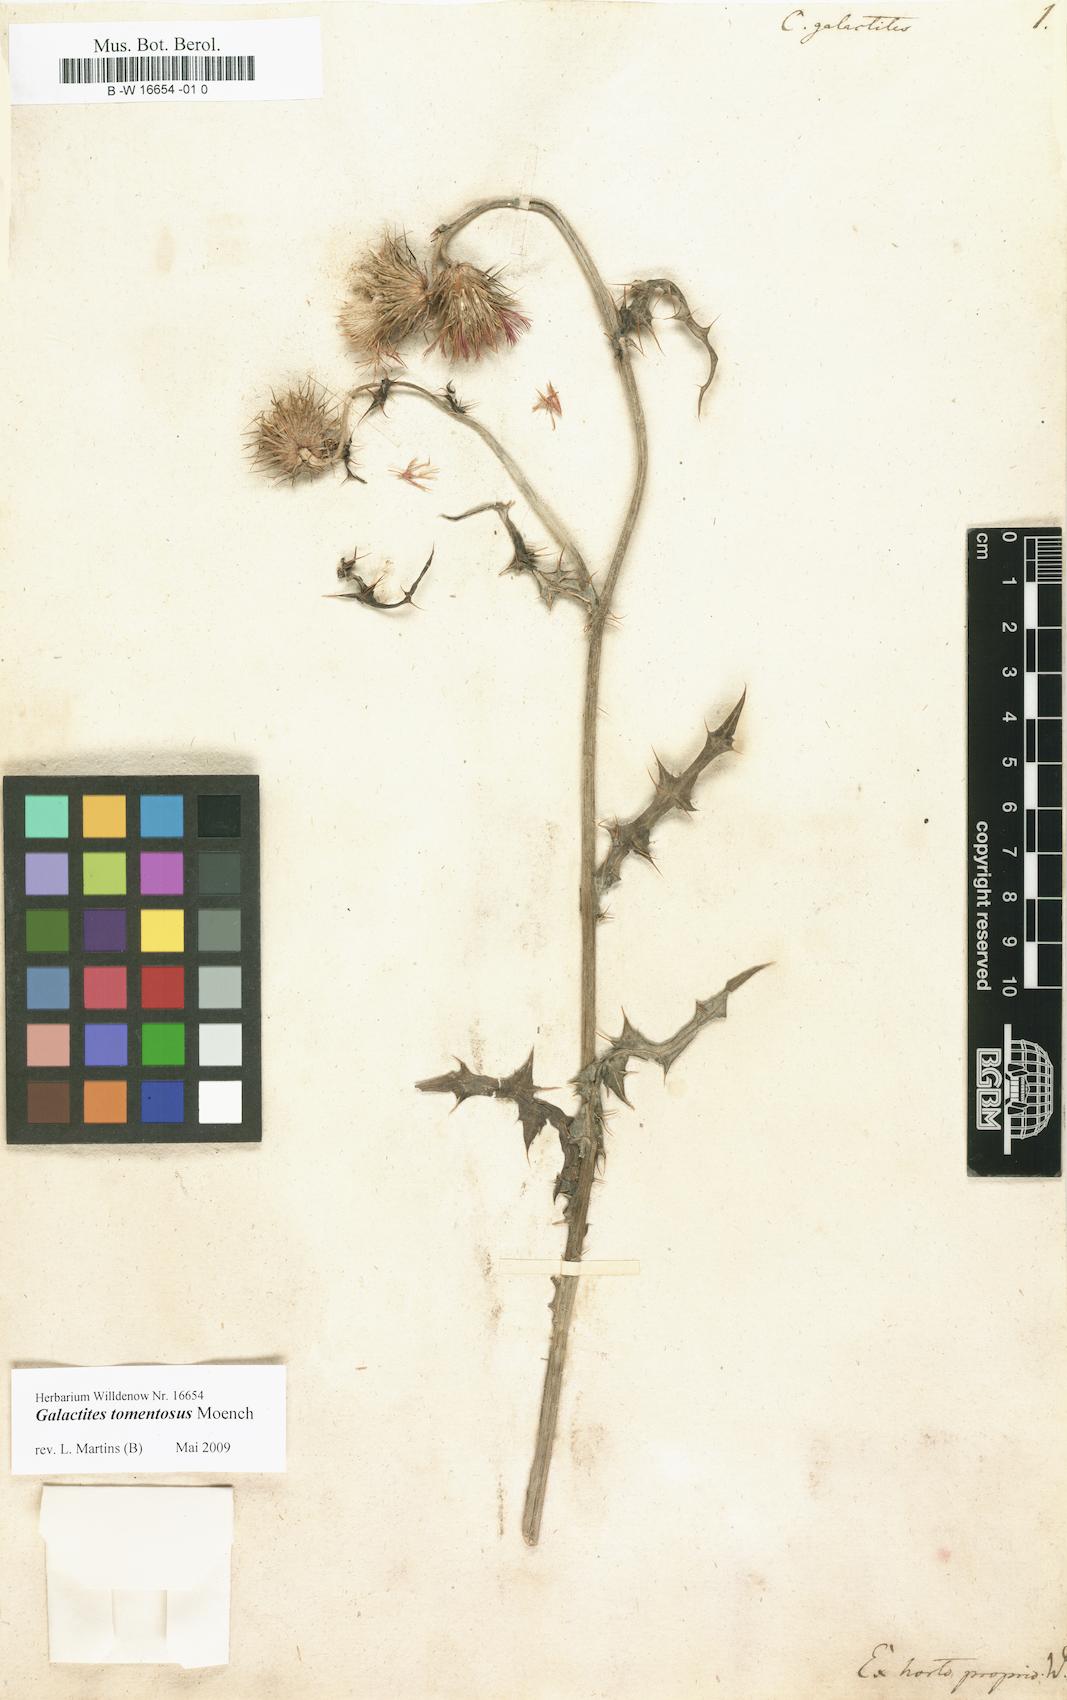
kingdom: Plantae
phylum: Tracheophyta
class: Magnoliopsida
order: Asterales
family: Asteraceae
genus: Galactites
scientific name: Galactites tomentosa
